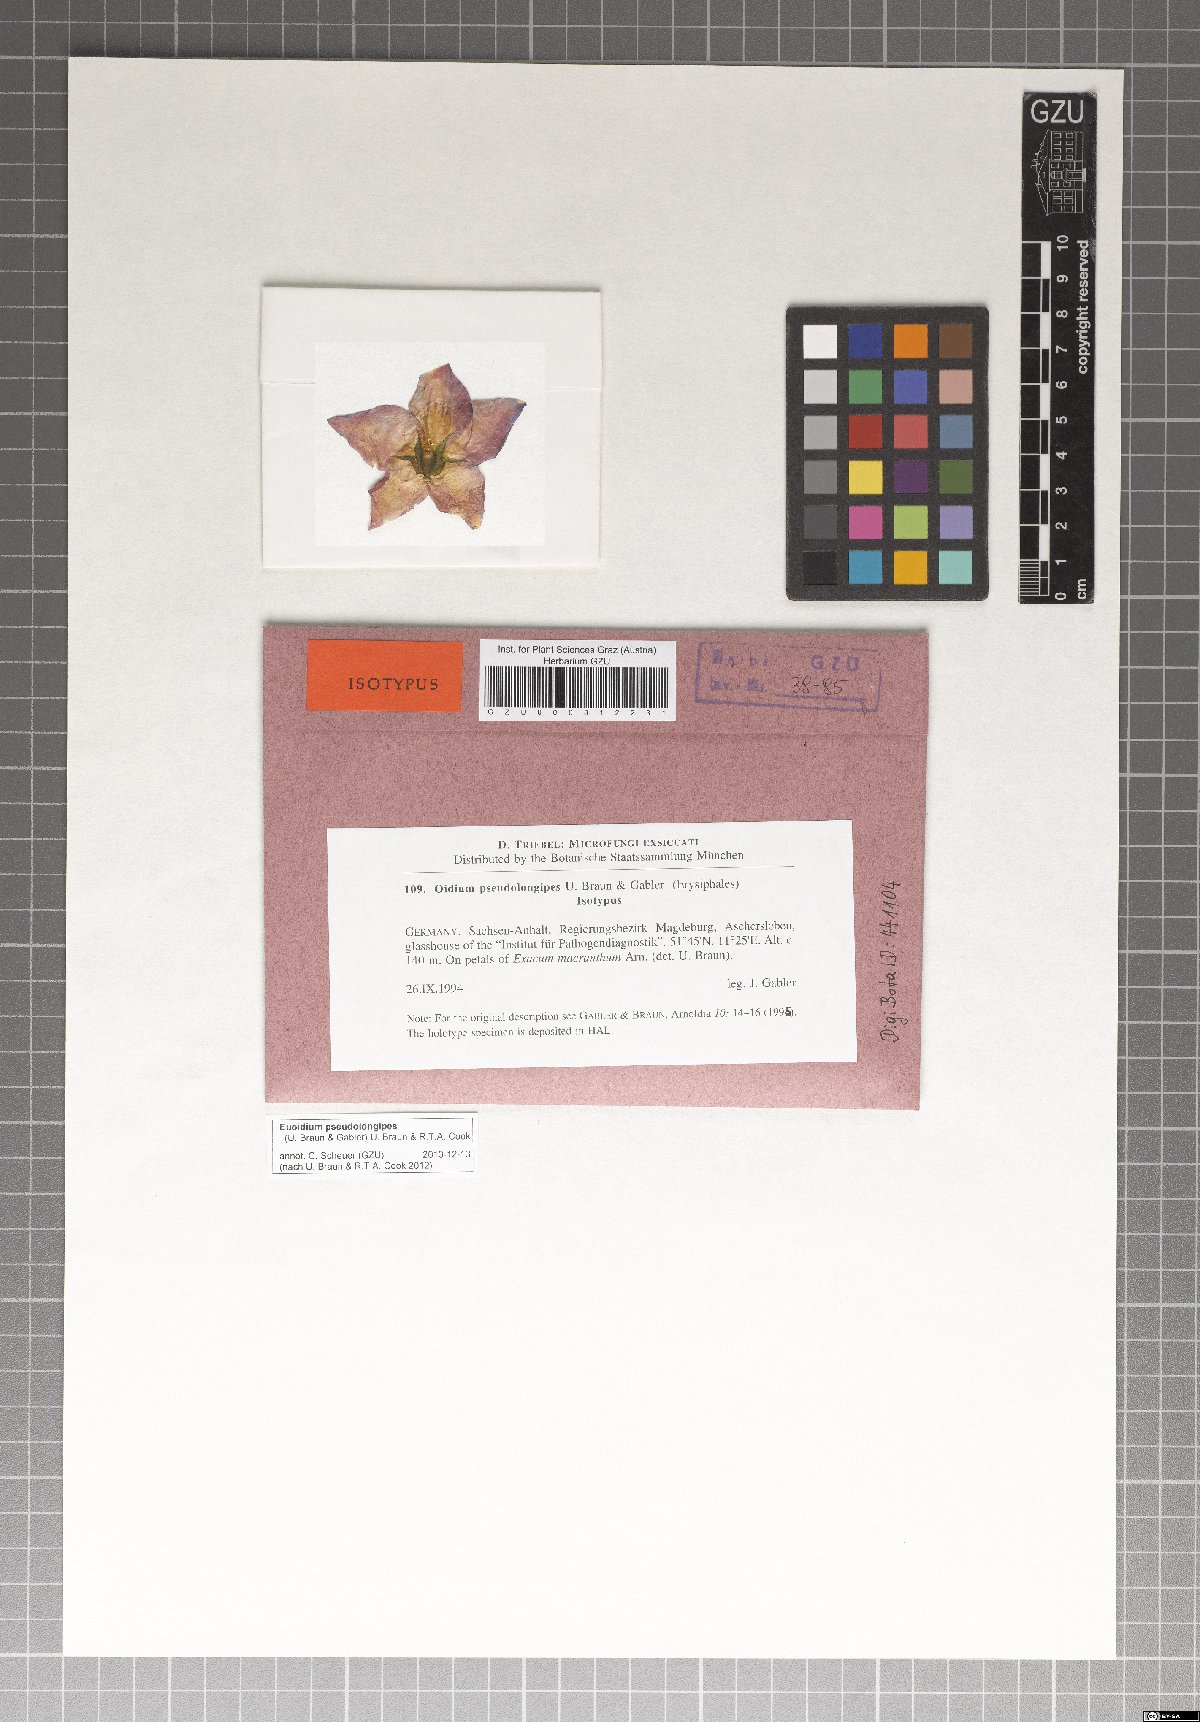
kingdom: Fungi
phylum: Ascomycota
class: Leotiomycetes
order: Helotiales
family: Erysiphaceae
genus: Euoidium
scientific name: Euoidium pseudolongipes
